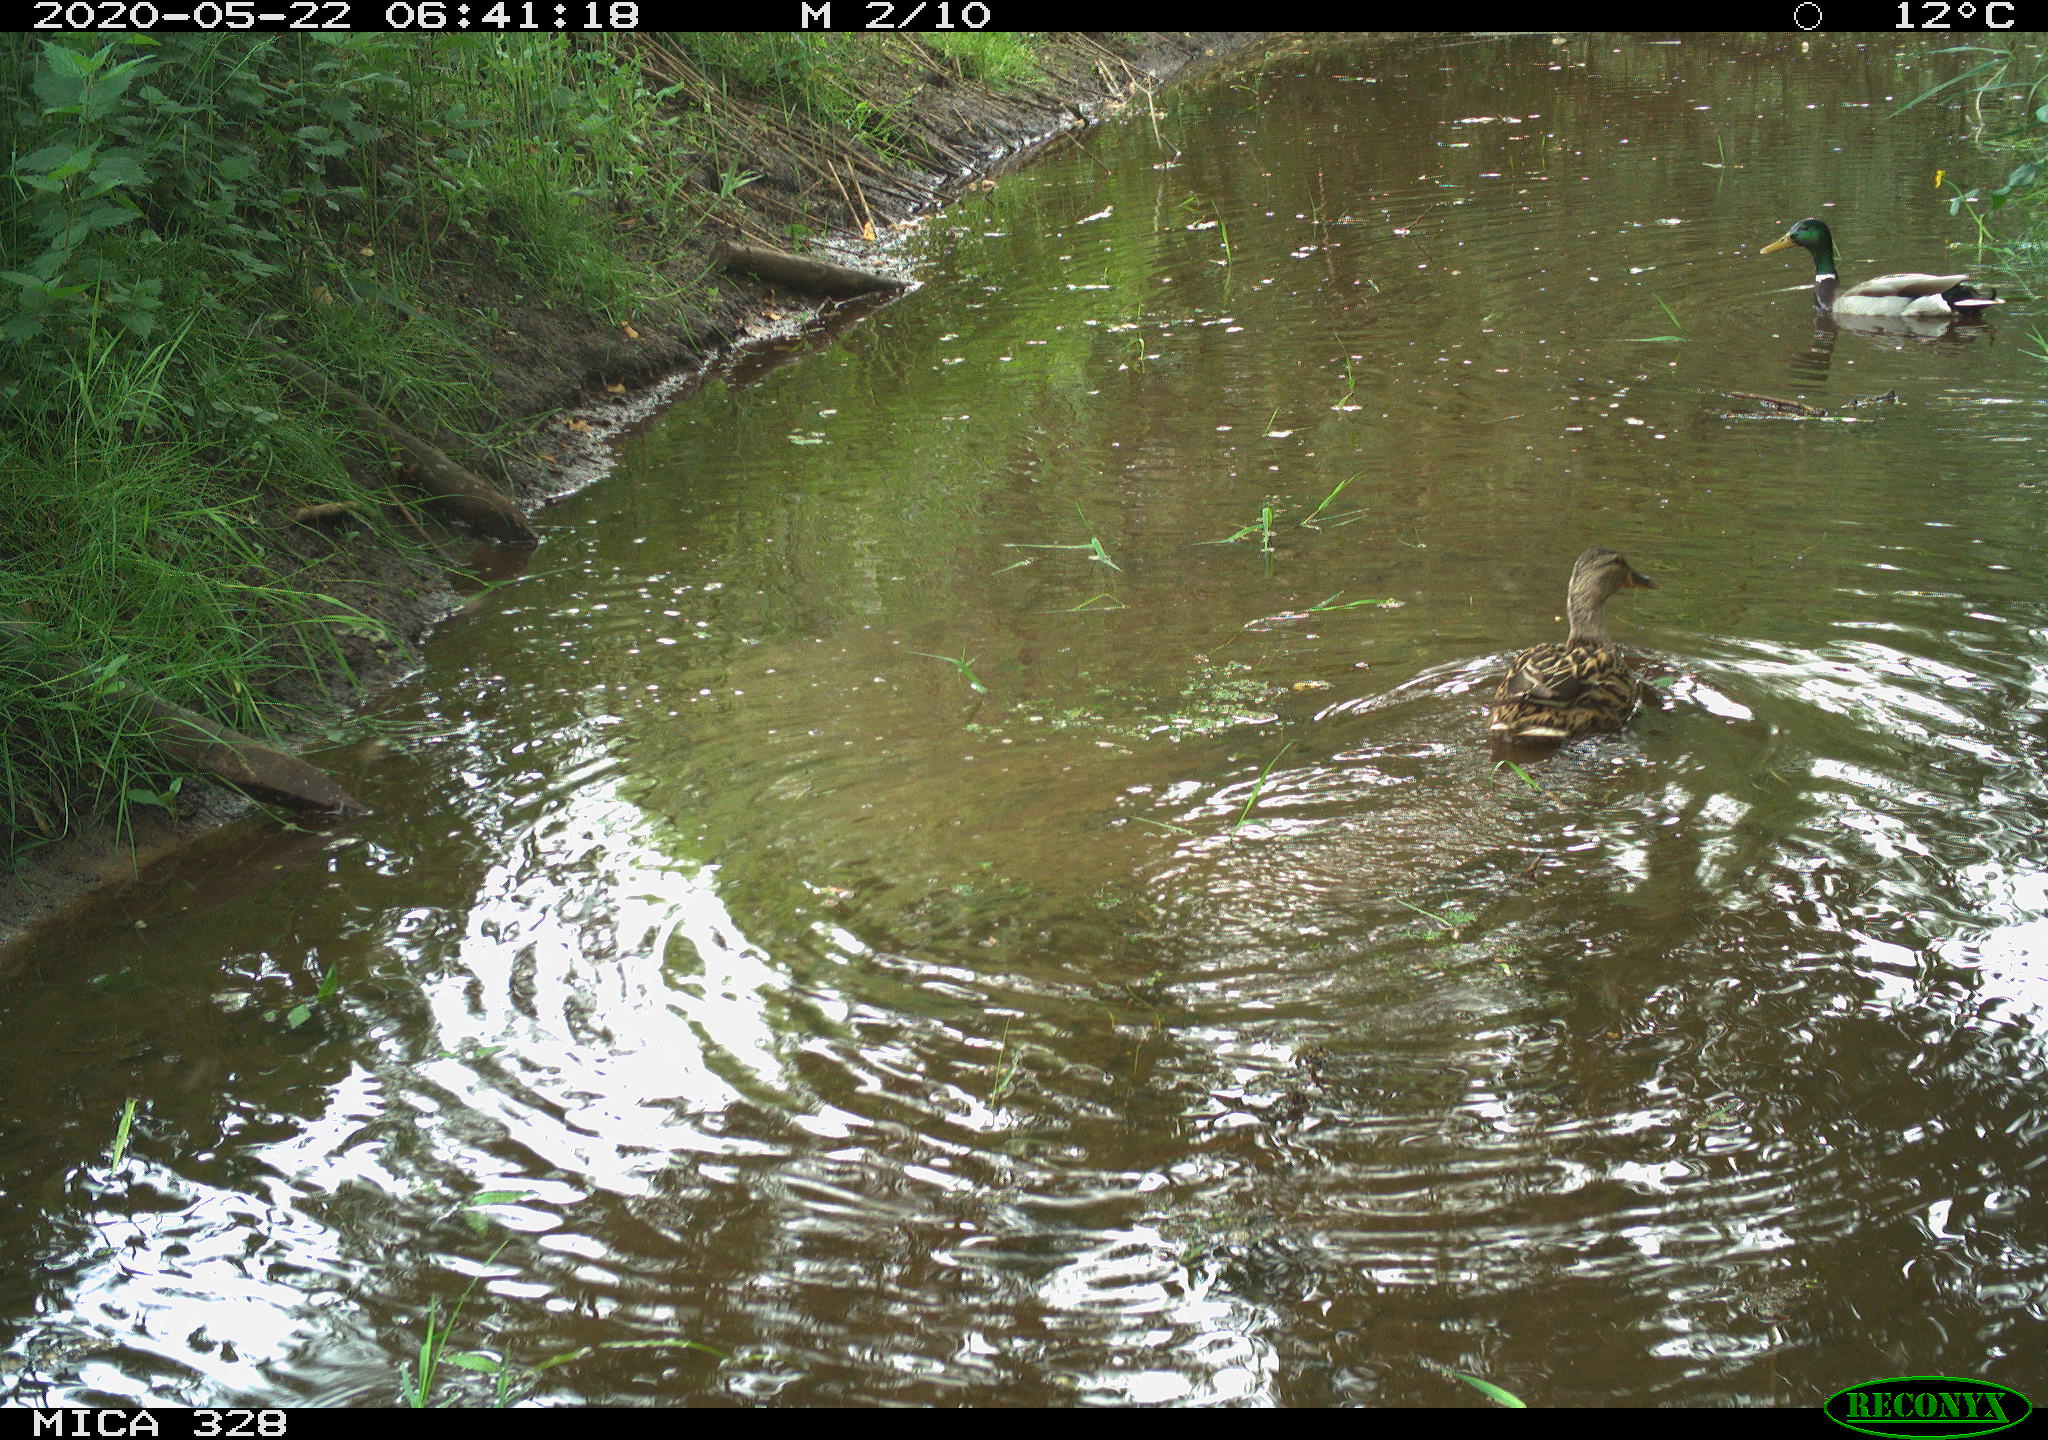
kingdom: Animalia
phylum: Chordata
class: Aves
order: Anseriformes
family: Anatidae
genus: Anas
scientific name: Anas platyrhynchos
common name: Mallard
